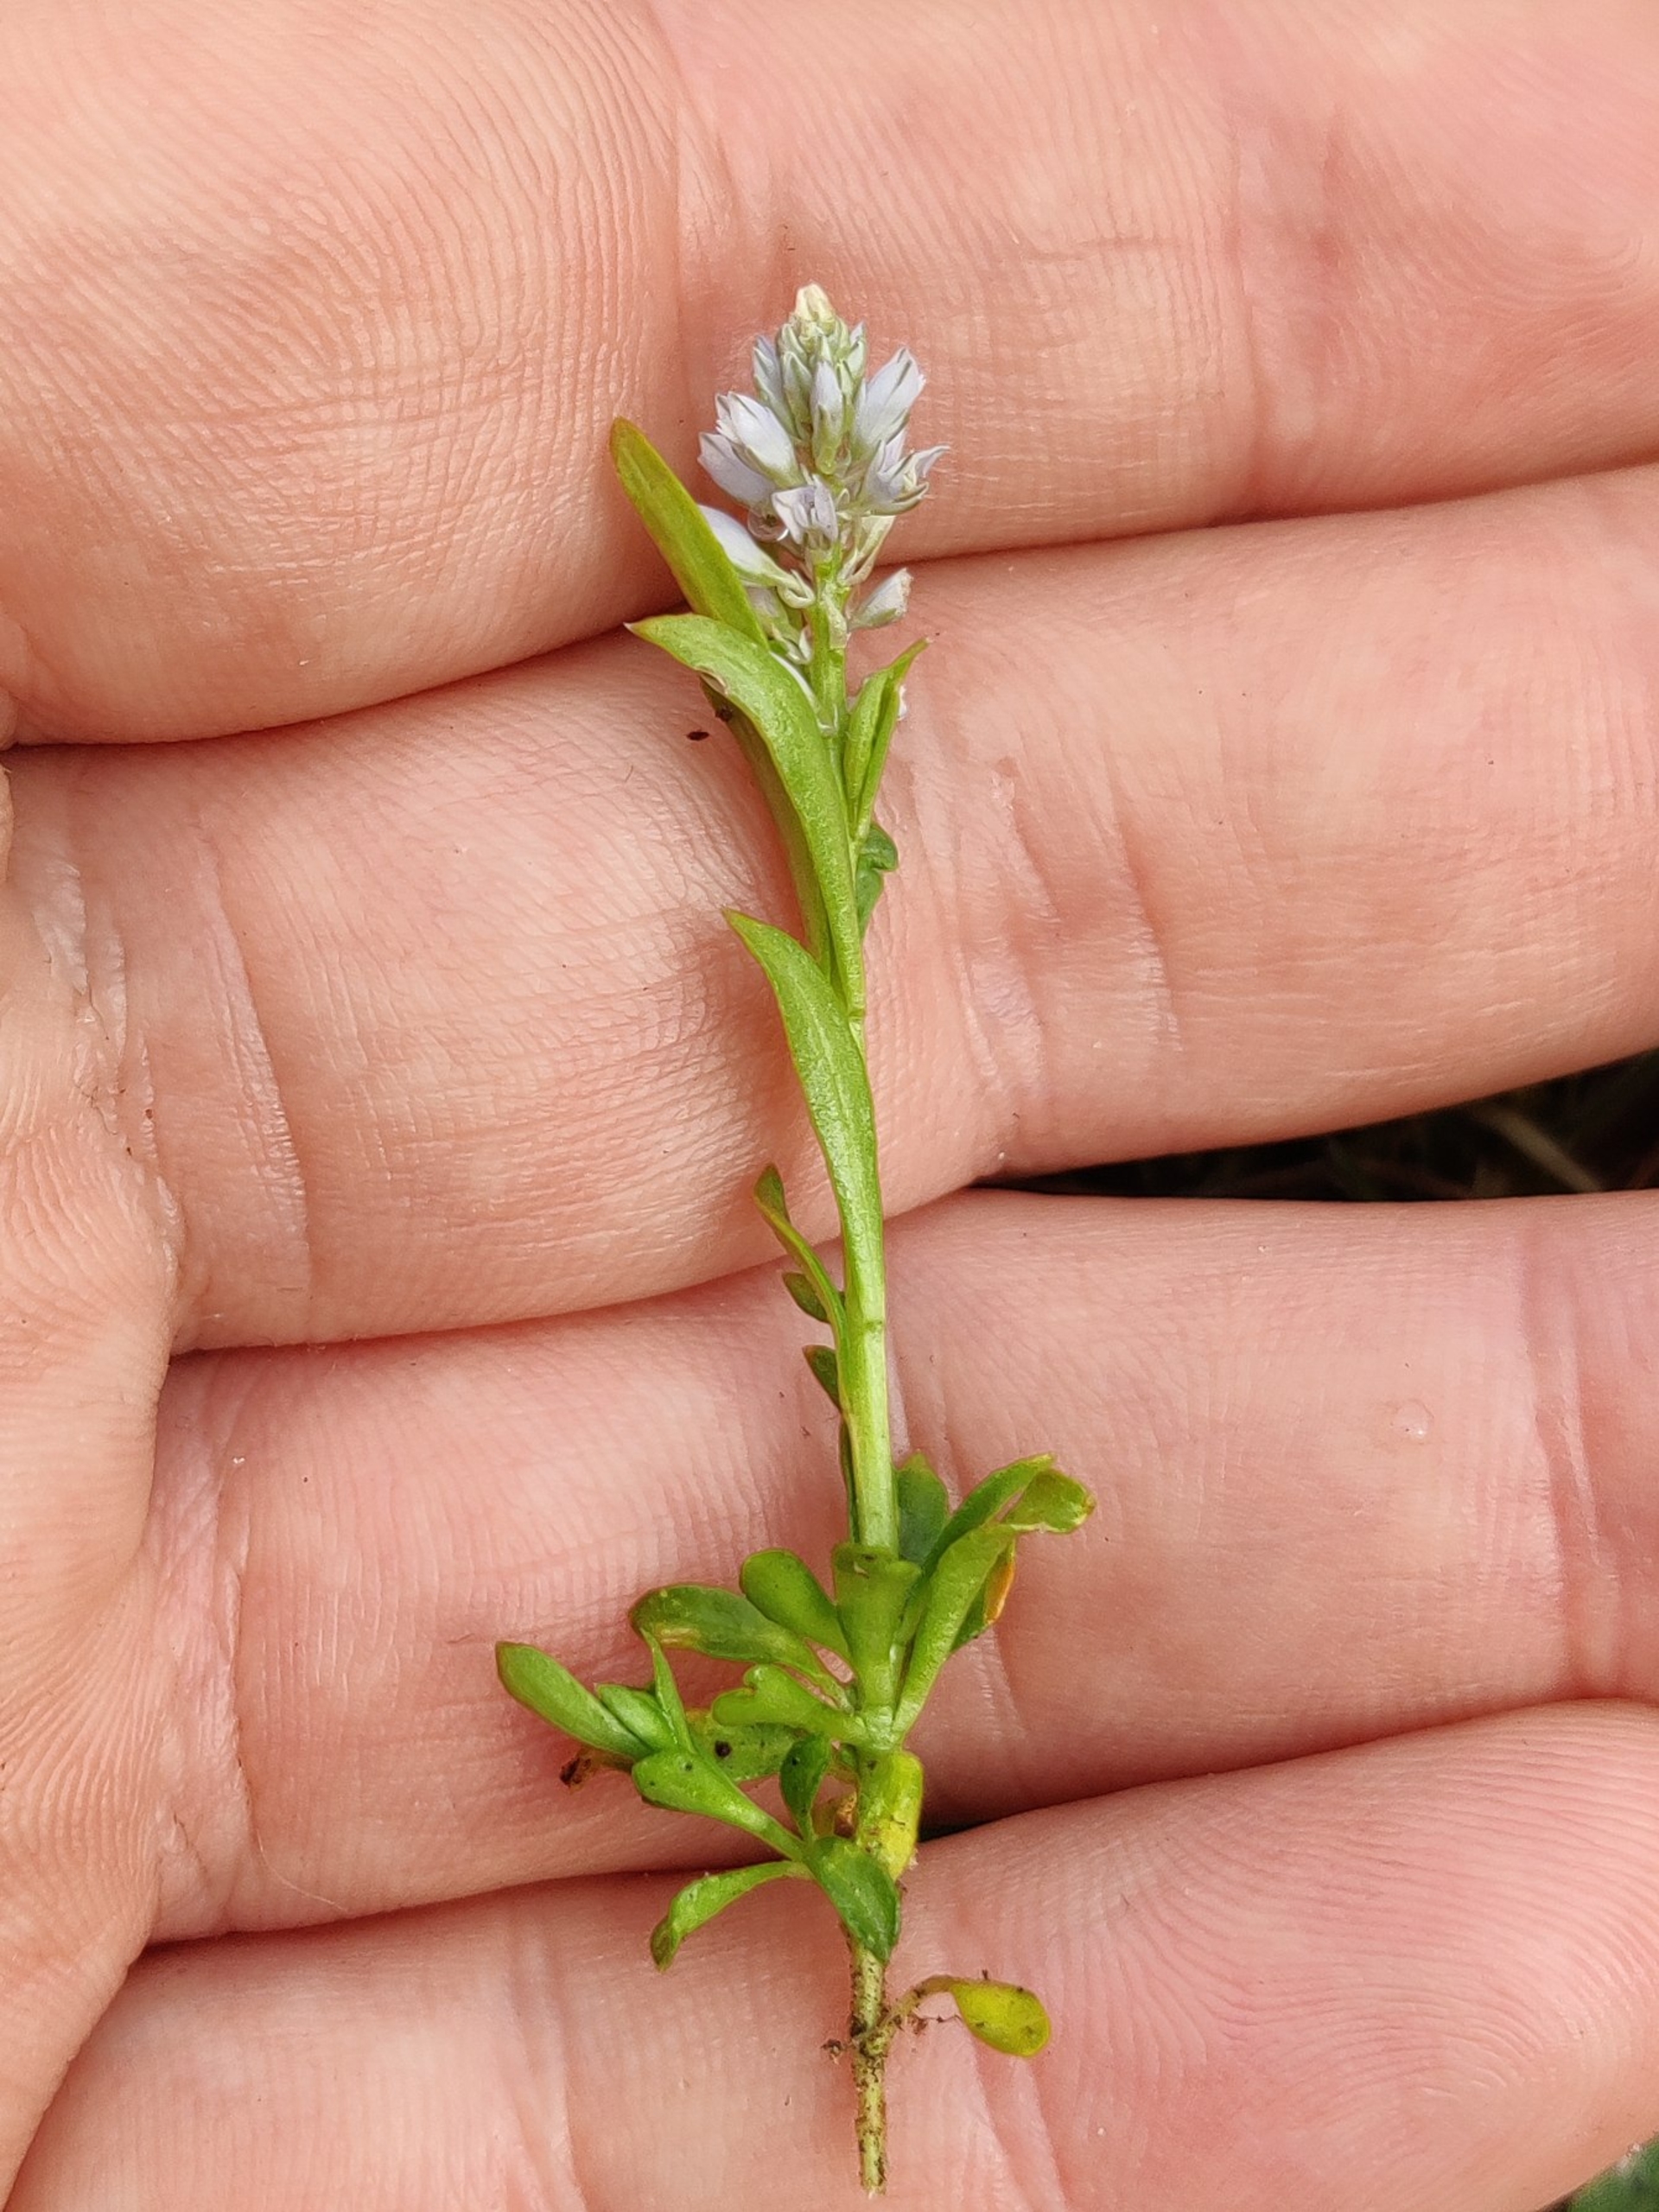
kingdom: Plantae
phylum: Tracheophyta
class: Magnoliopsida
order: Fabales
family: Polygalaceae
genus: Polygala
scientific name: Polygala amarella
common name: Bitter mælkeurt
